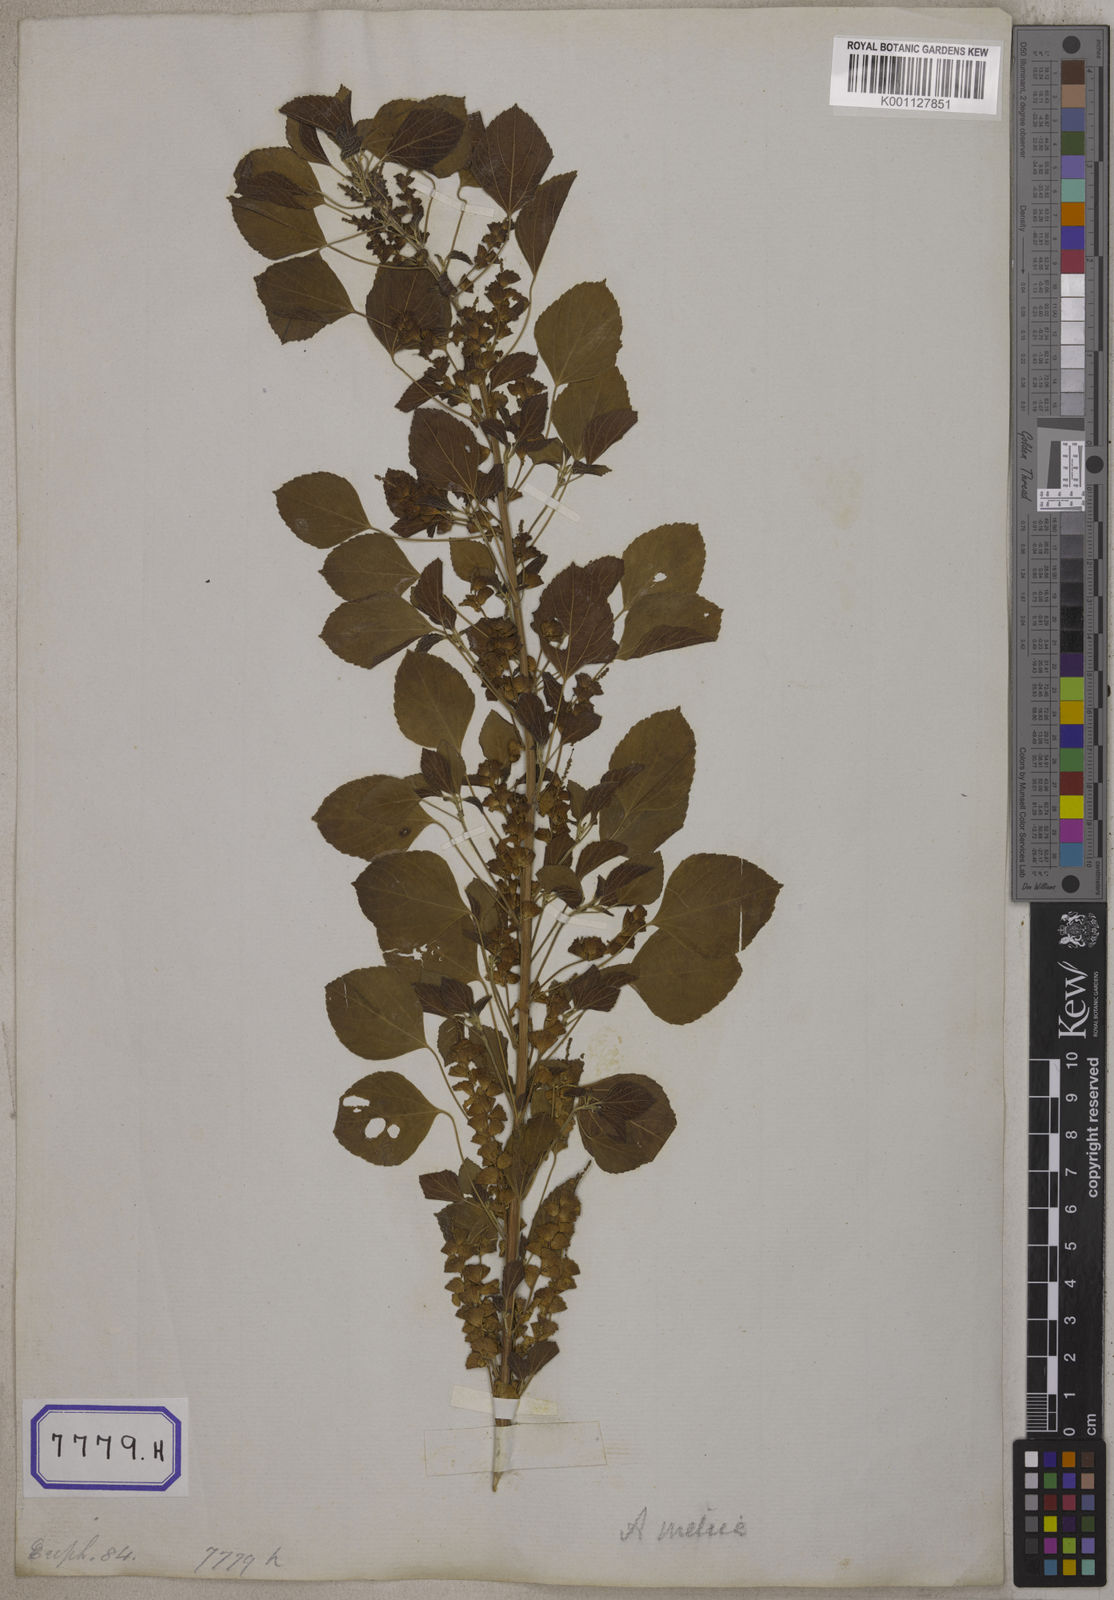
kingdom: Plantae
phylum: Tracheophyta
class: Magnoliopsida
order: Malpighiales
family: Euphorbiaceae
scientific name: Euphorbiaceae
